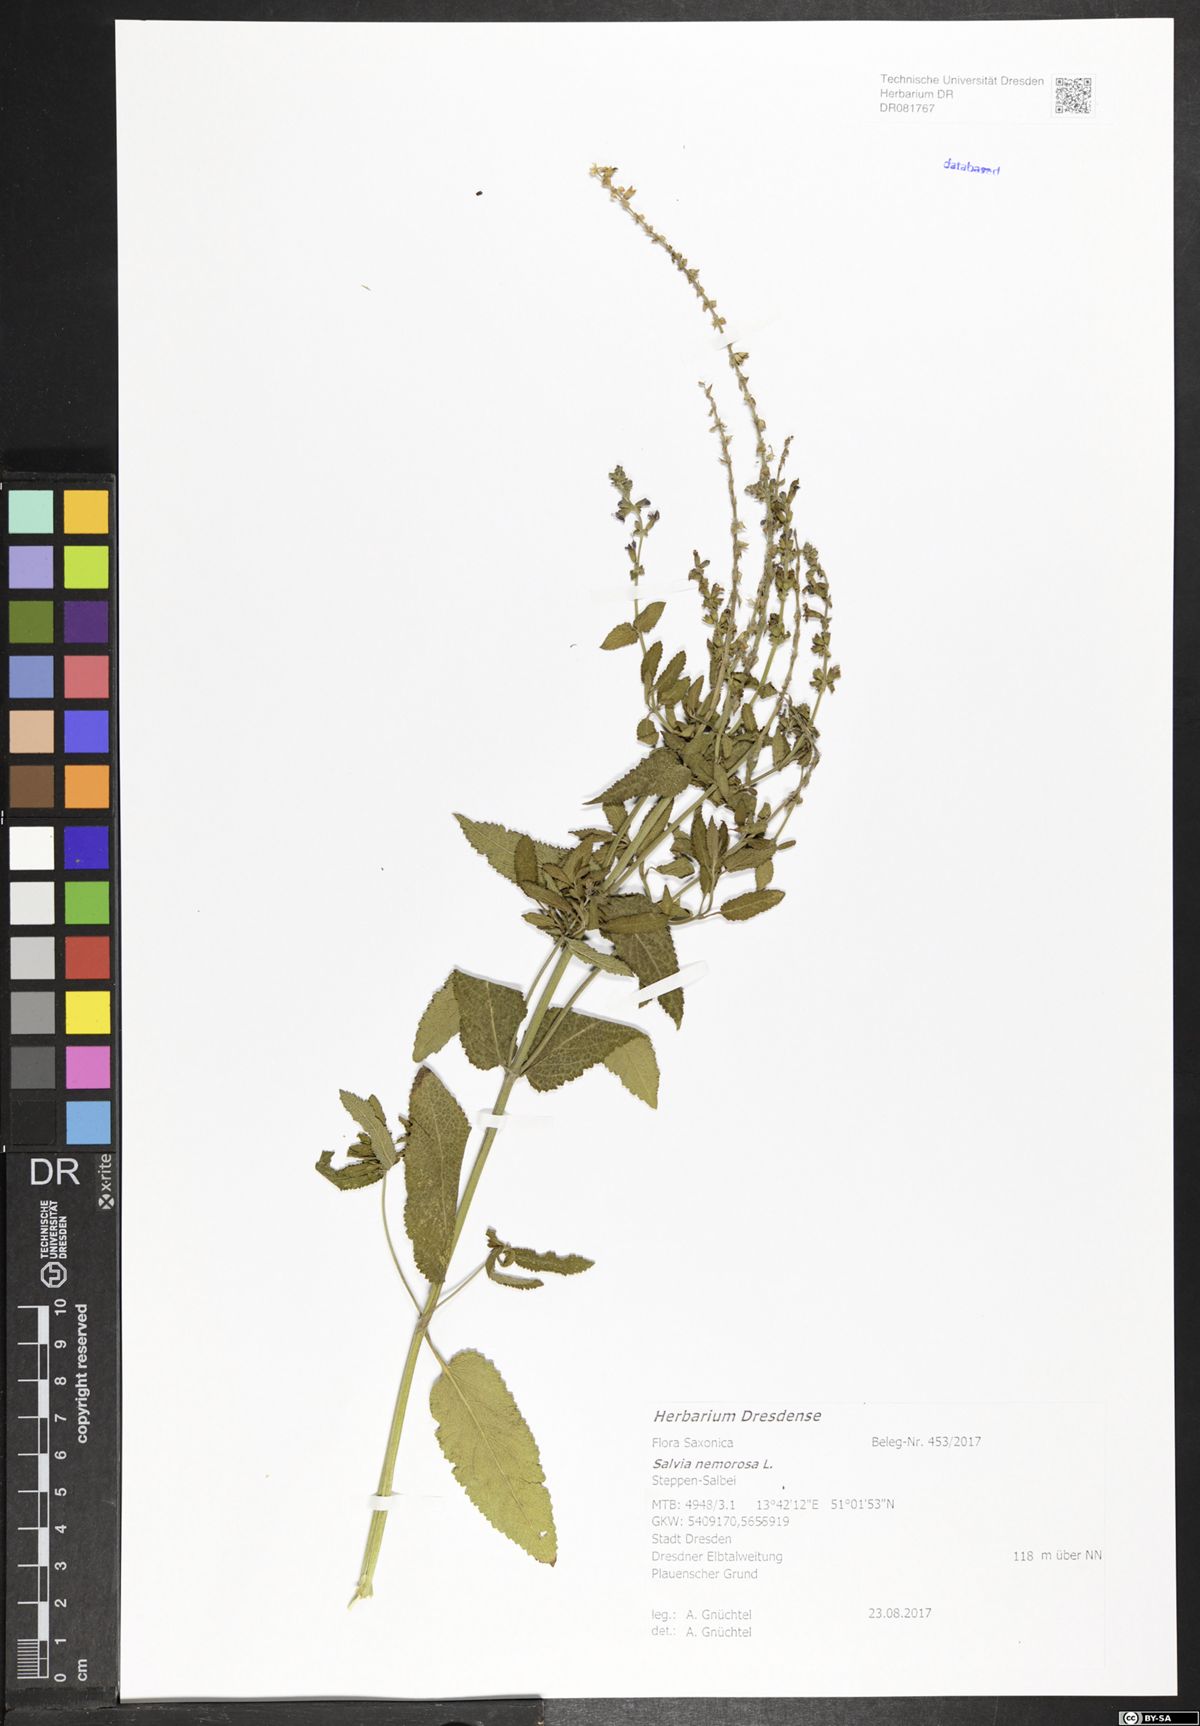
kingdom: Plantae
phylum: Tracheophyta
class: Magnoliopsida
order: Lamiales
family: Lamiaceae
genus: Salvia
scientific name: Salvia nemorosa
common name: Balkan clary
